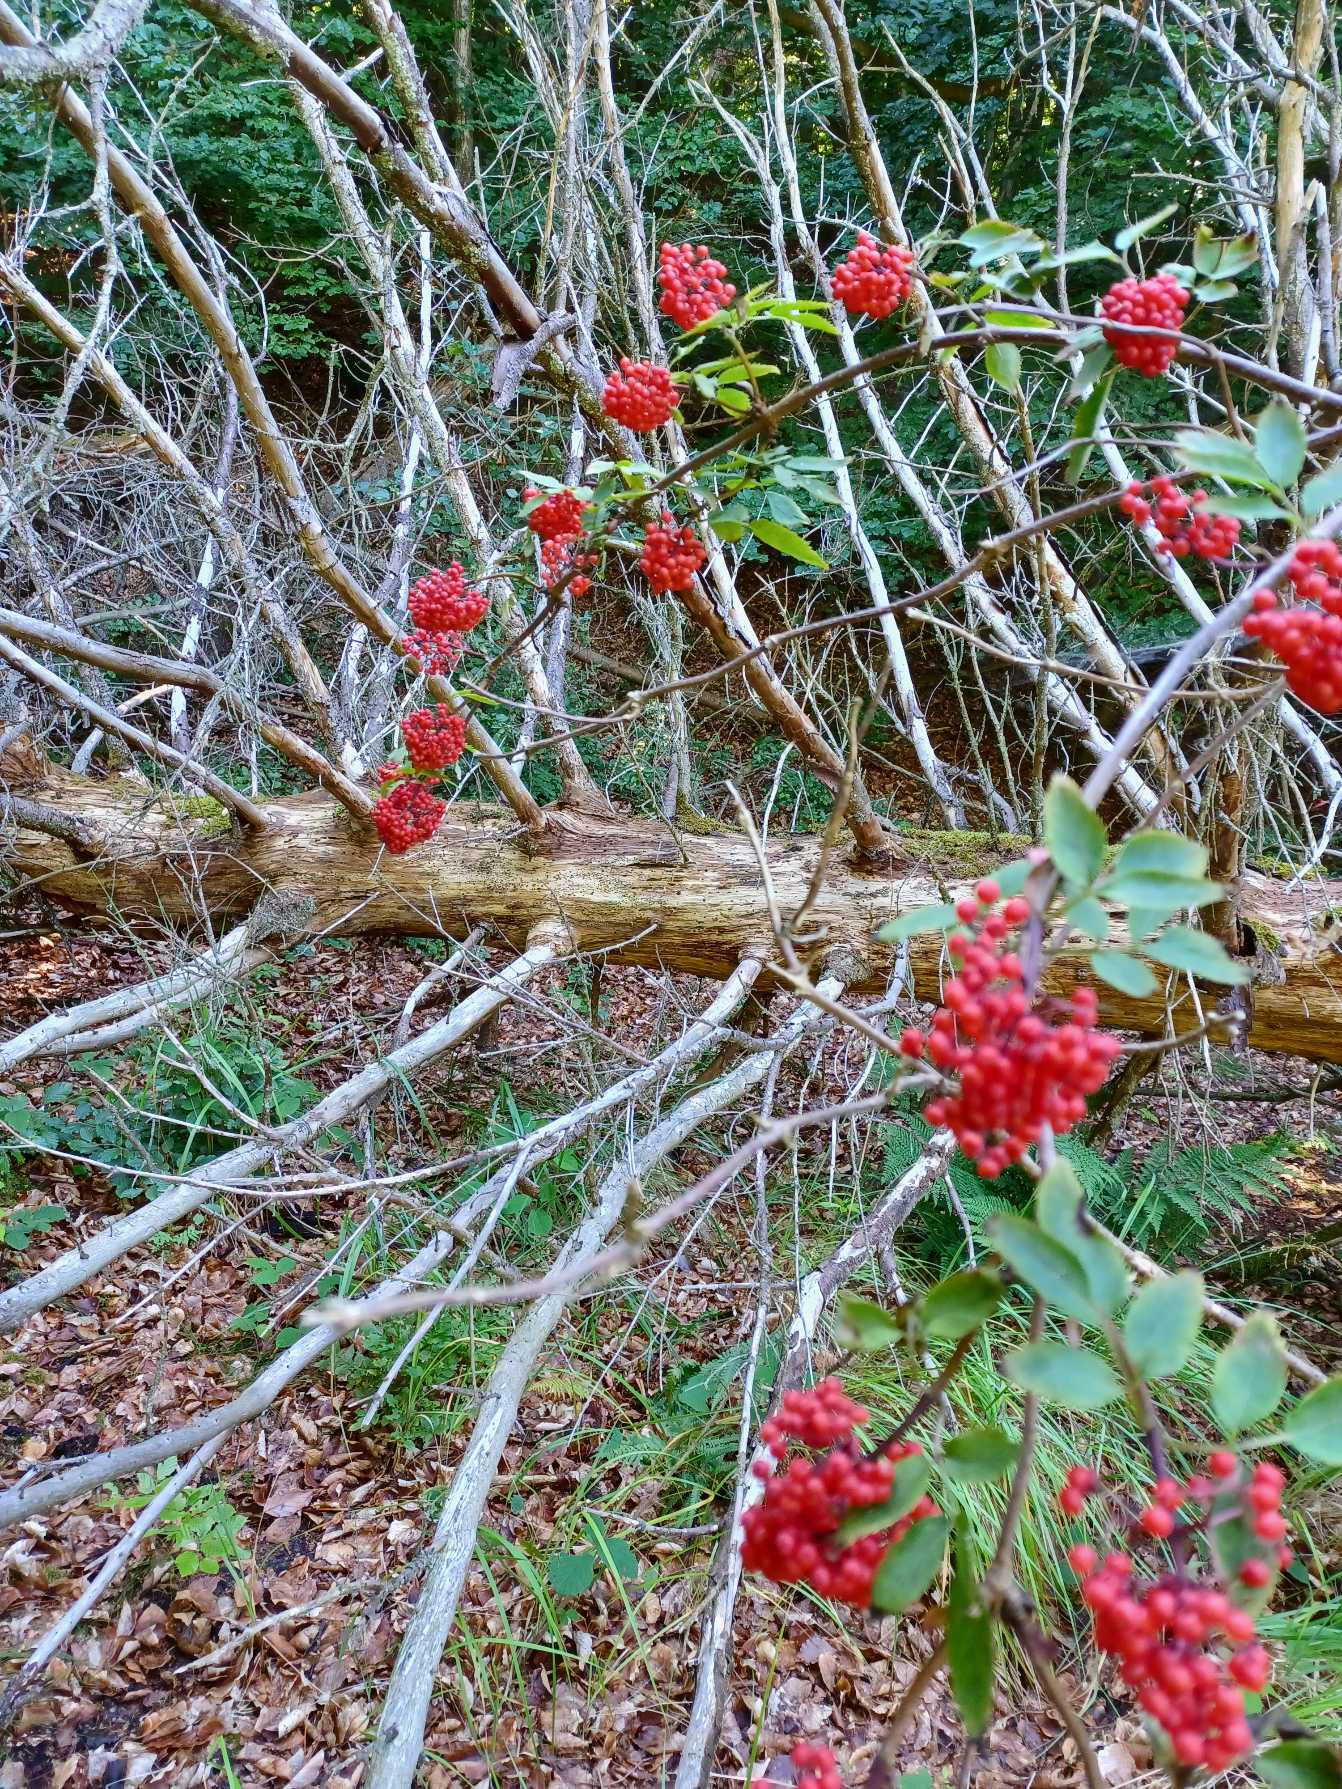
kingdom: Plantae
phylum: Tracheophyta
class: Magnoliopsida
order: Dipsacales
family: Viburnaceae
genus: Sambucus
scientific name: Sambucus racemosa
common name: Drue-hyld
